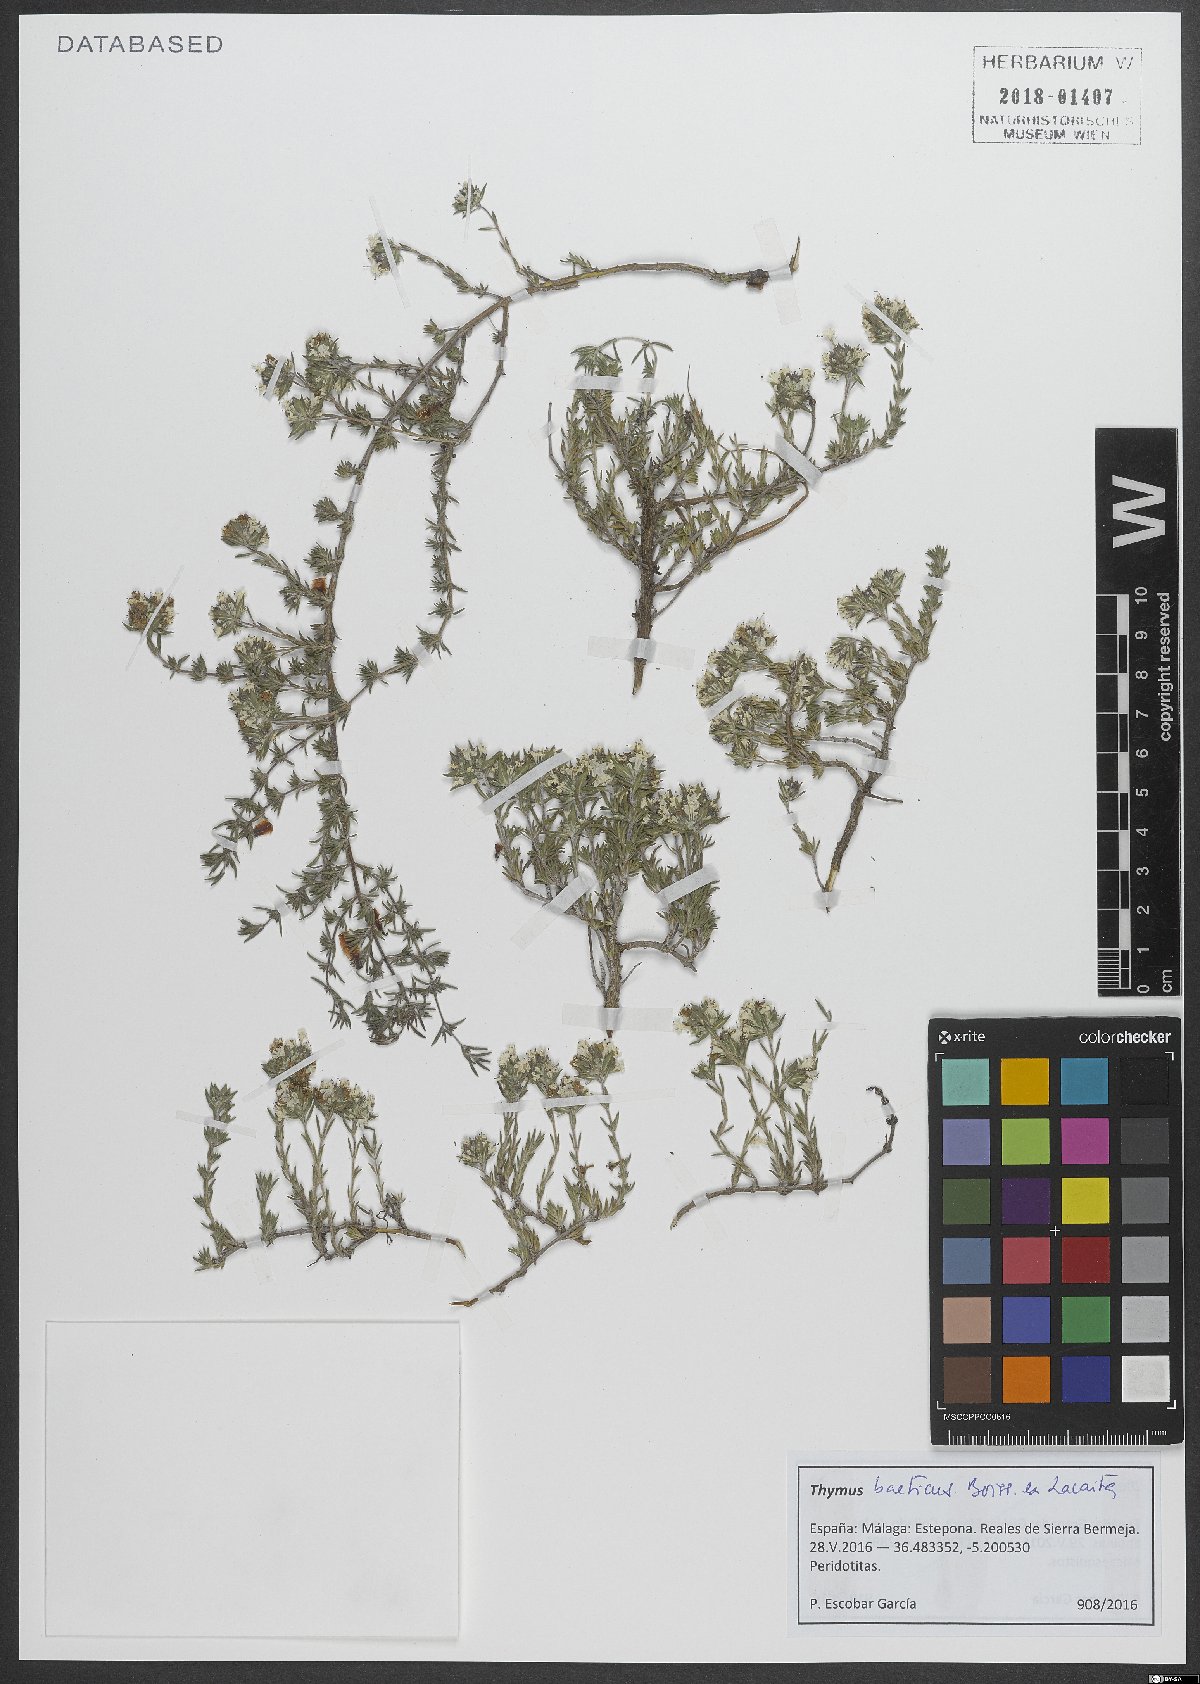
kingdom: Plantae
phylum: Tracheophyta
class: Magnoliopsida
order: Lamiales
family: Lamiaceae
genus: Thymus
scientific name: Thymus baeticus
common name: Spanish lemon thyme
